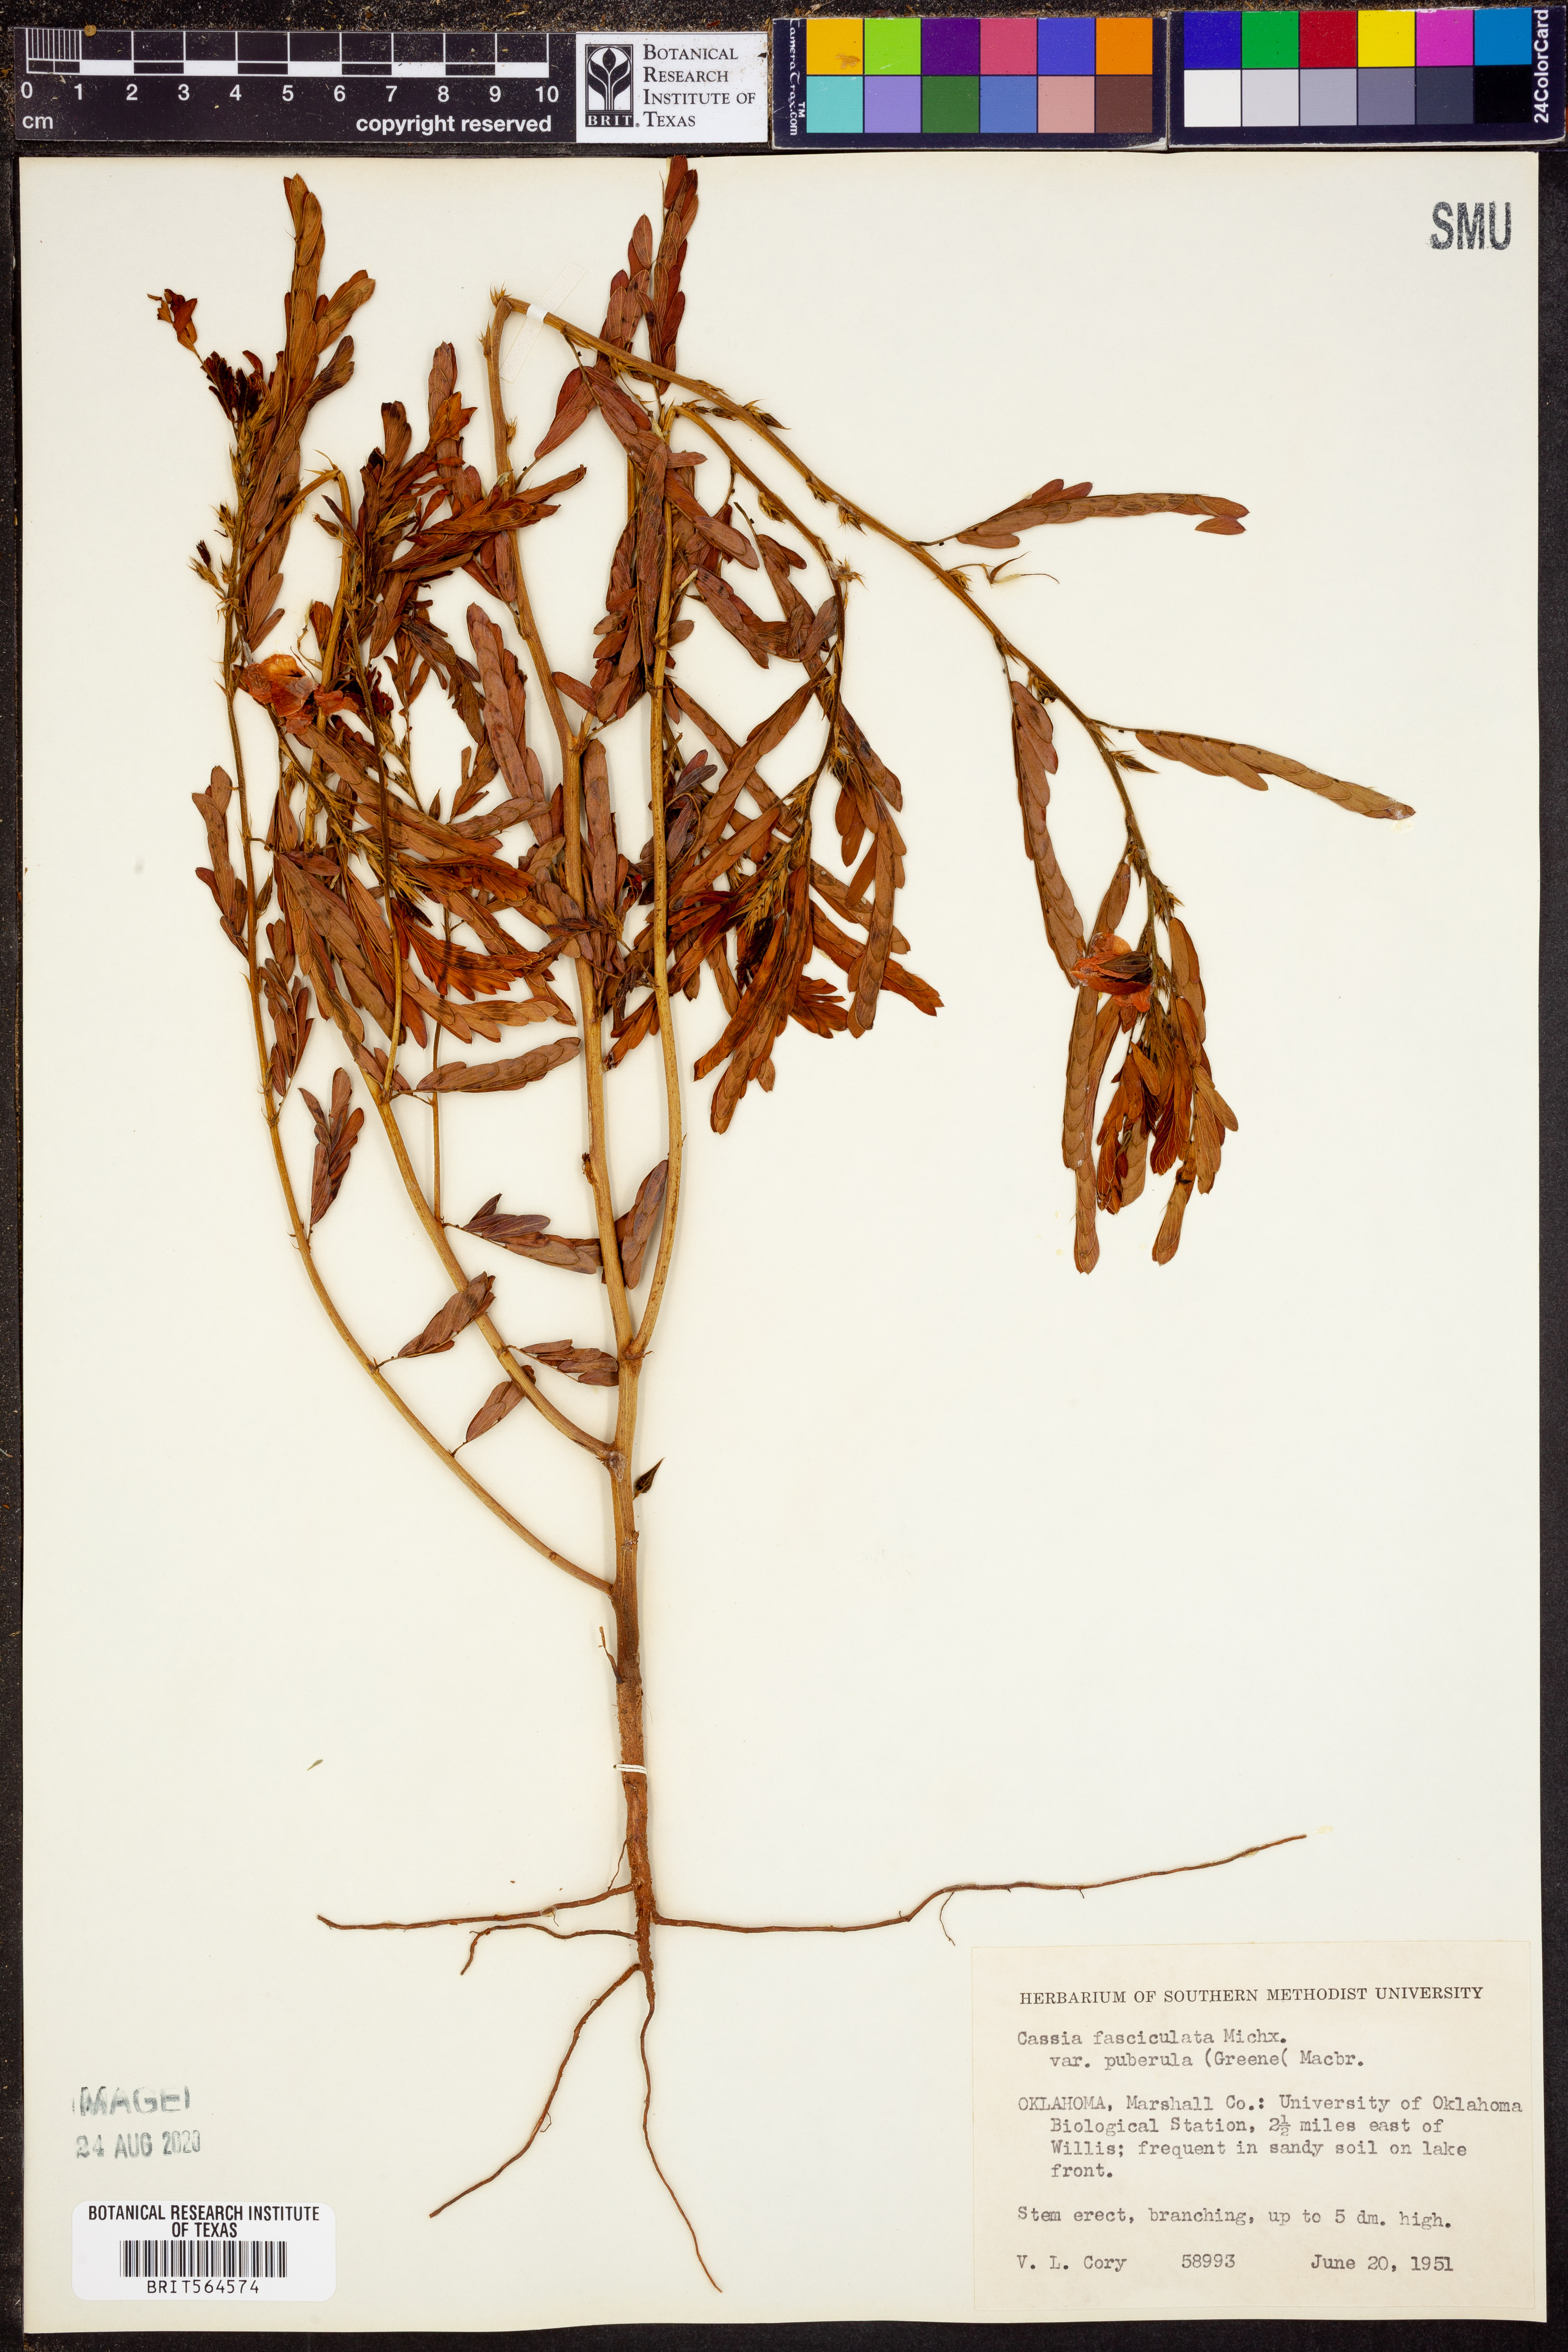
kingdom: Plantae
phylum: Tracheophyta
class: Magnoliopsida
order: Fabales
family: Fabaceae
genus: Chamaecrista
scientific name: Chamaecrista fasciculata
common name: Golden cassia
